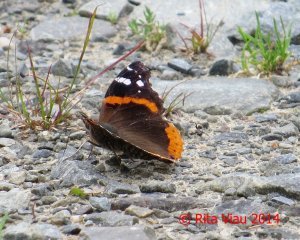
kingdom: Animalia
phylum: Arthropoda
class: Insecta
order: Lepidoptera
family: Nymphalidae
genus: Vanessa
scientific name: Vanessa atalanta
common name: Red Admiral
